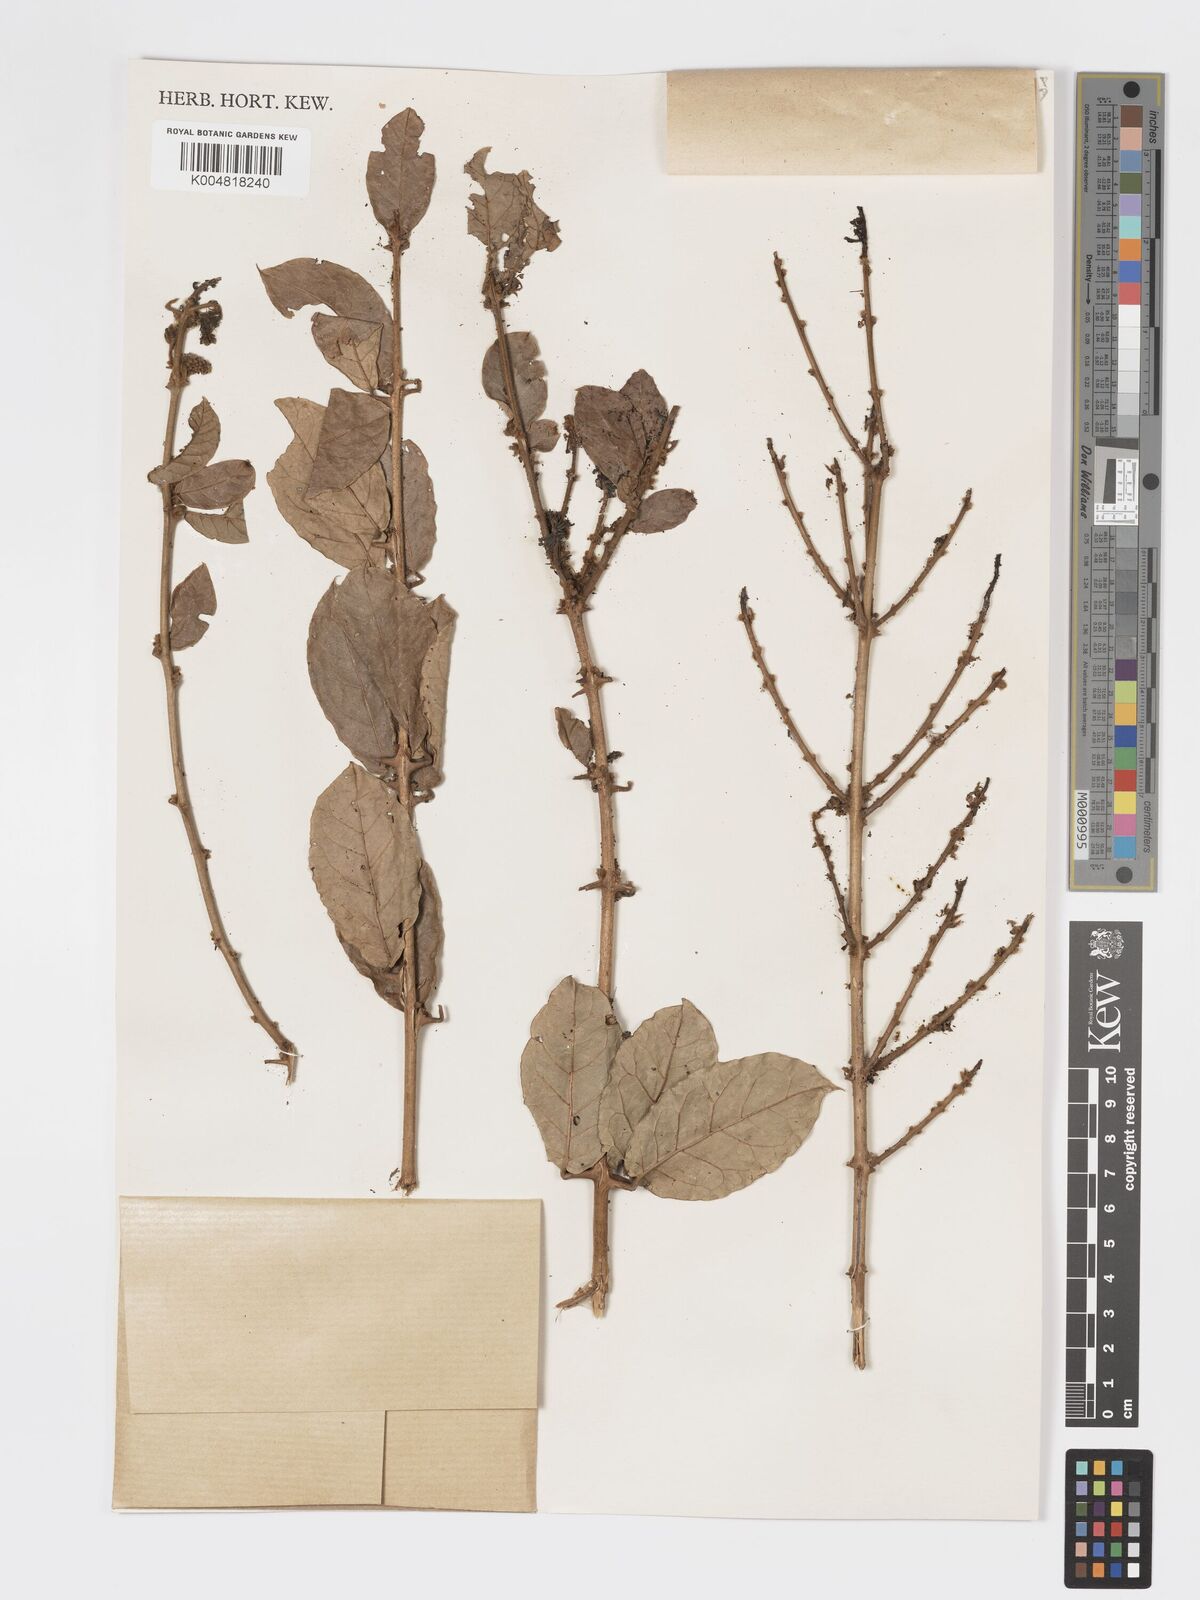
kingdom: Plantae
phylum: Tracheophyta
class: Magnoliopsida
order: Myrtales
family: Combretaceae
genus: Combretum
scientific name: Combretum constrictum
